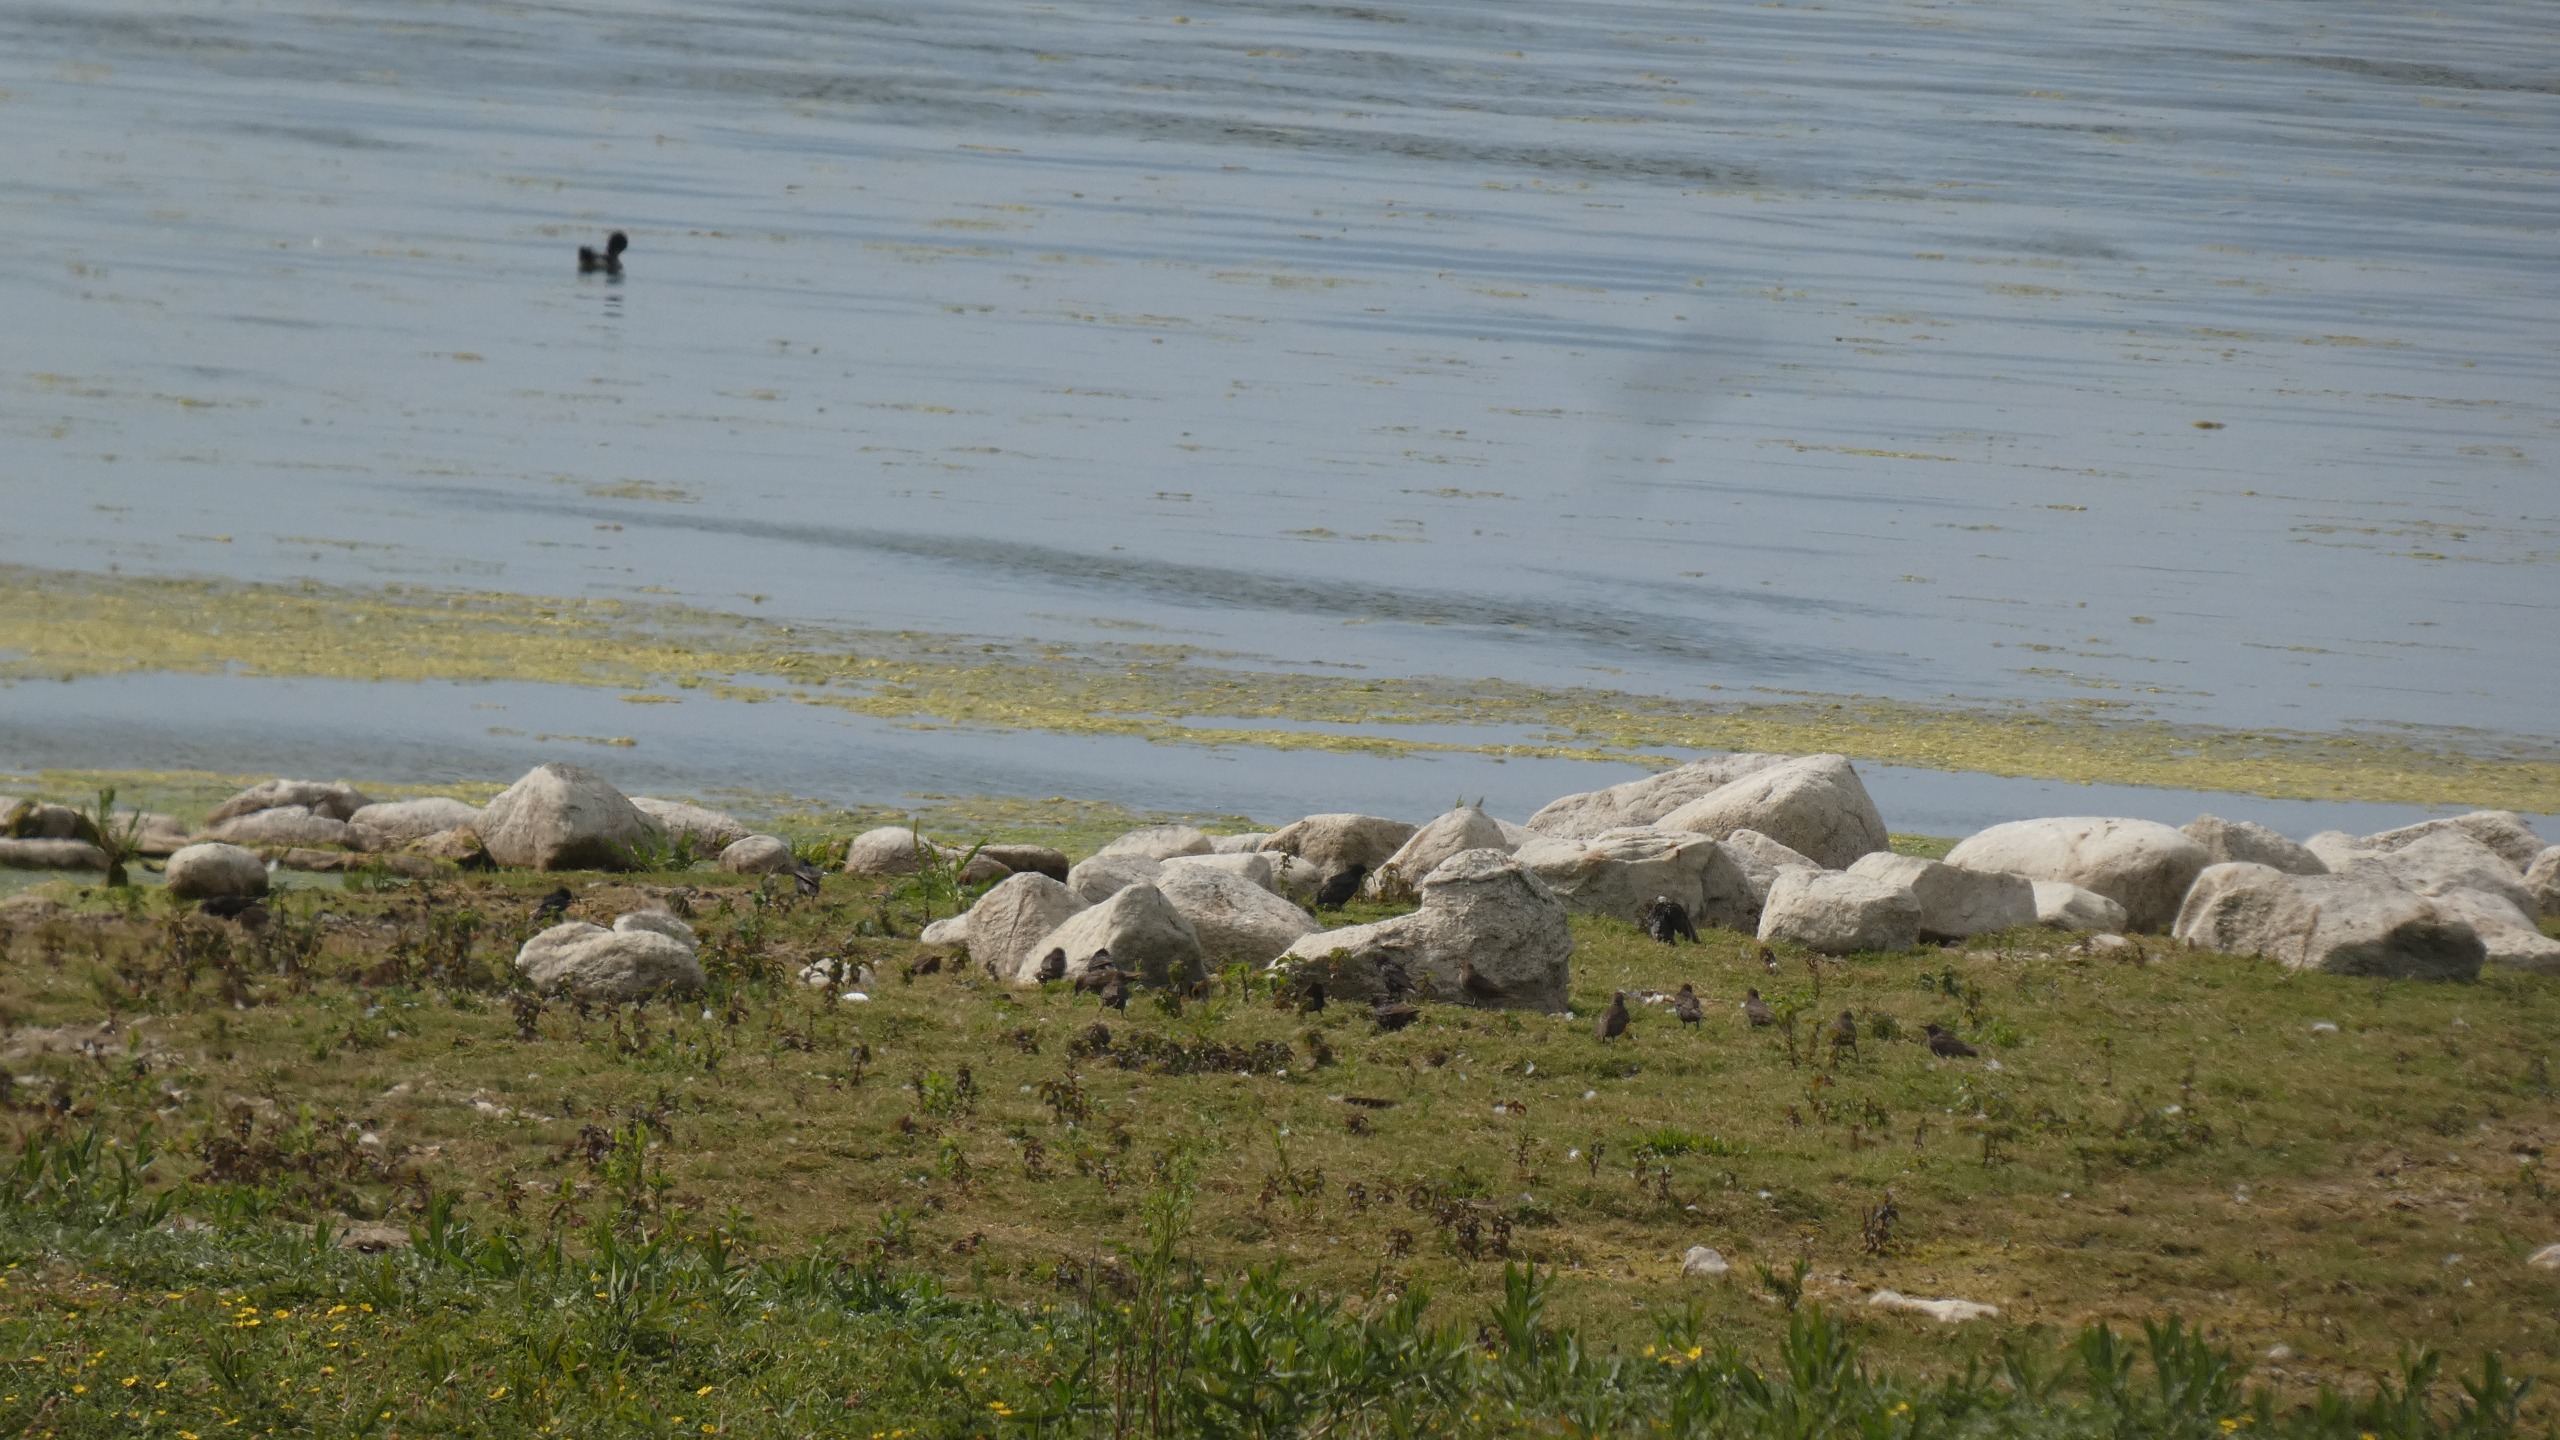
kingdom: Animalia
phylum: Chordata
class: Aves
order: Passeriformes
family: Sturnidae
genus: Sturnus
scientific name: Sturnus vulgaris
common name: Stær
